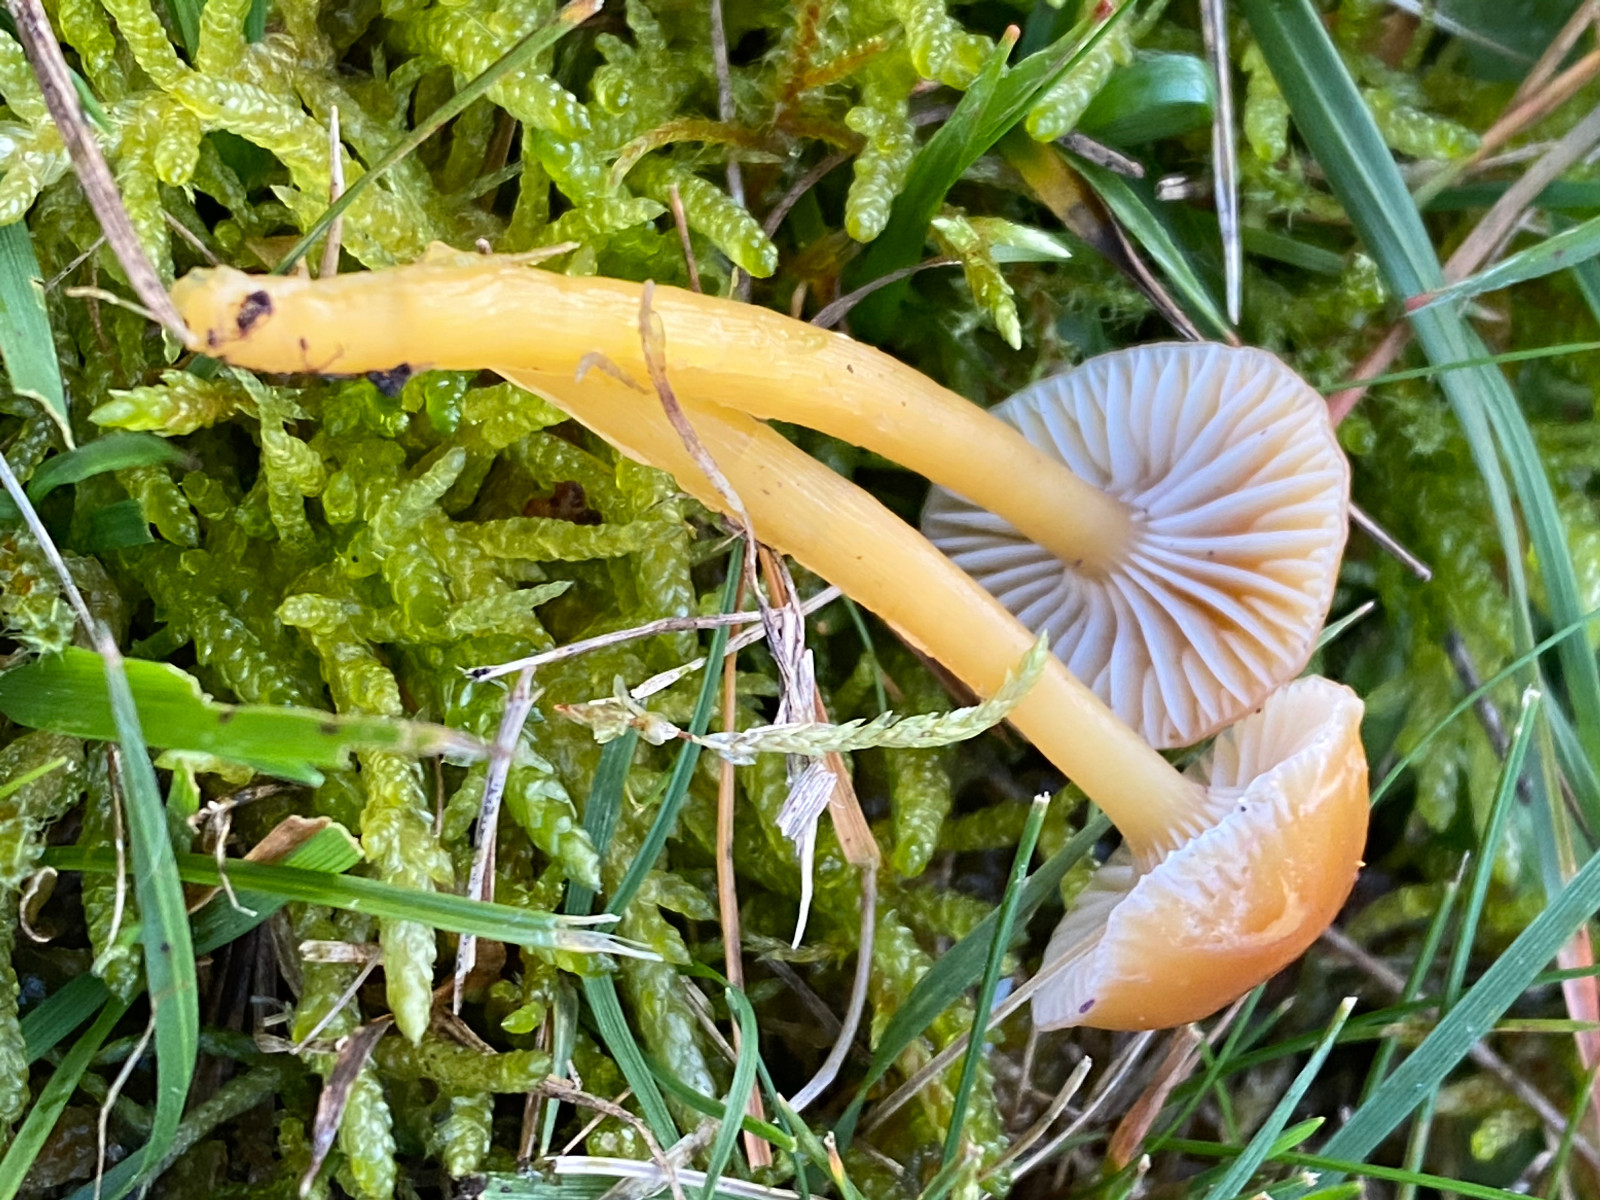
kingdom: Fungi
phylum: Basidiomycota
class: Agaricomycetes
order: Agaricales
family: Hygrophoraceae
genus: Gliophorus
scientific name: Gliophorus laetus
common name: brusk-vokshat
